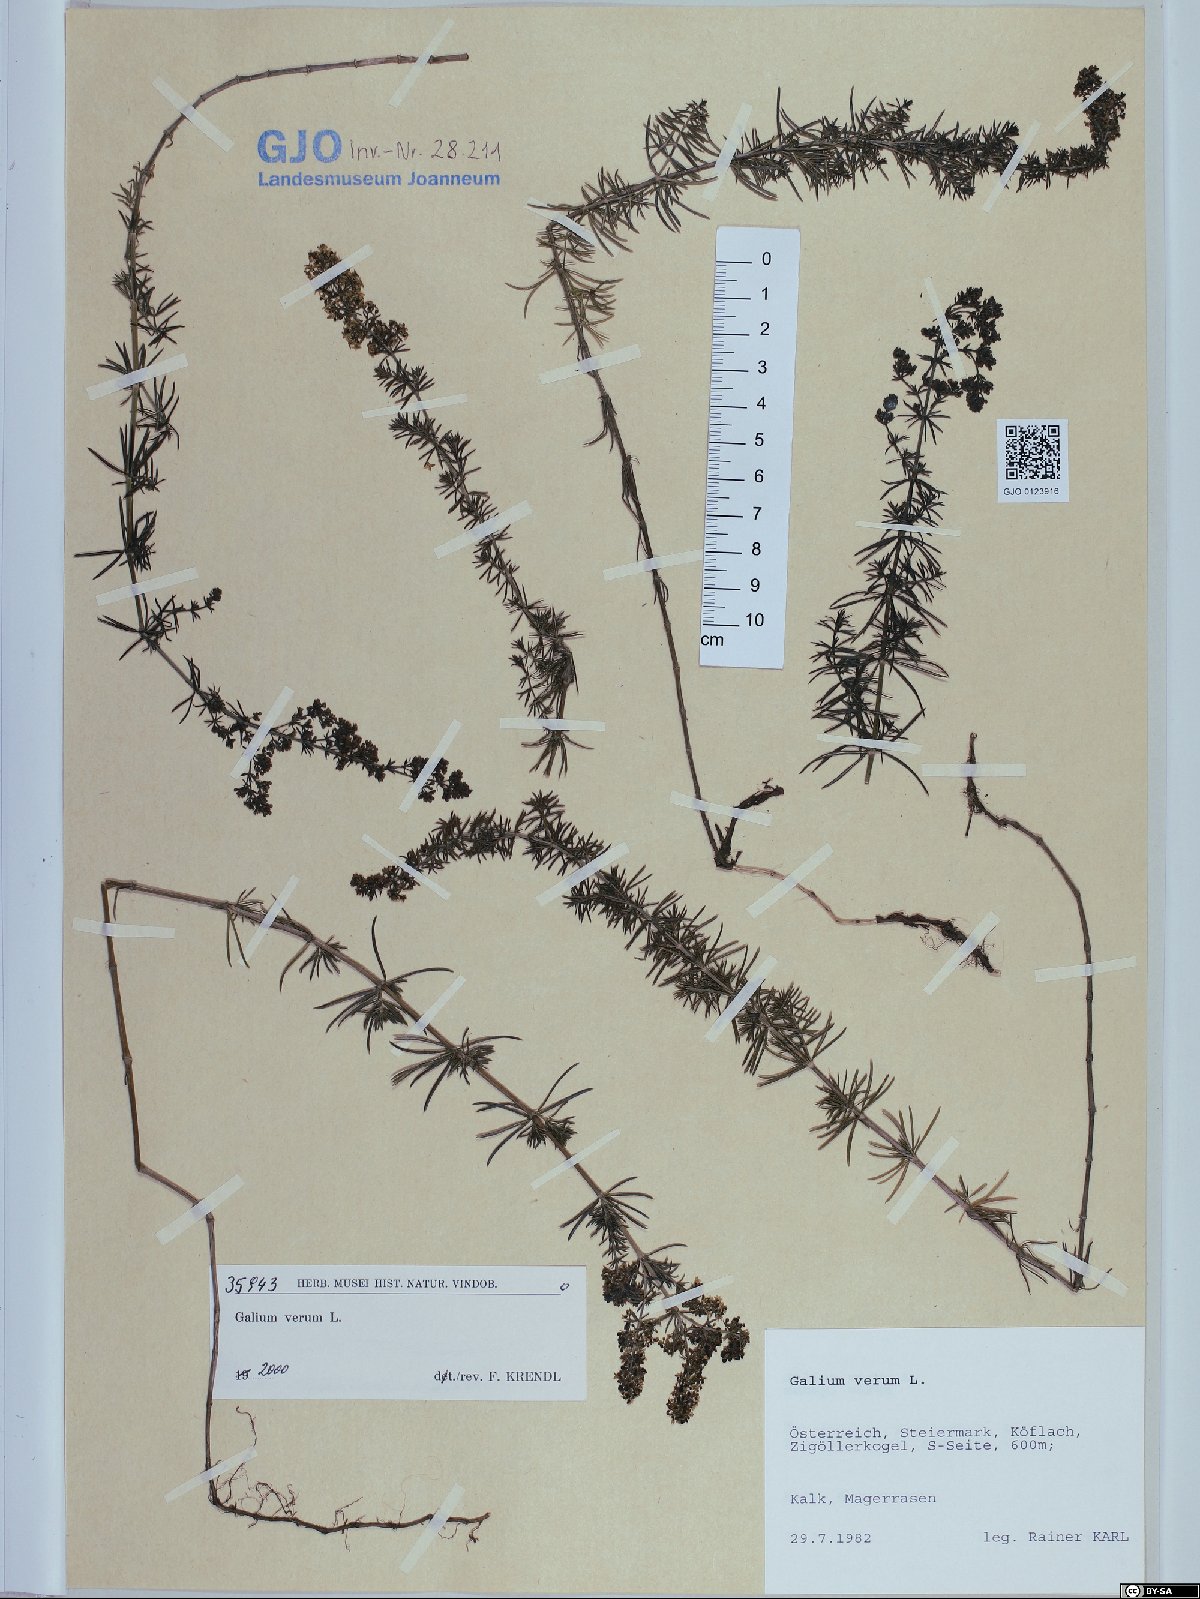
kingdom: Plantae
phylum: Tracheophyta
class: Magnoliopsida
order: Gentianales
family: Rubiaceae
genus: Galium
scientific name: Galium verum
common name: Lady's bedstraw
